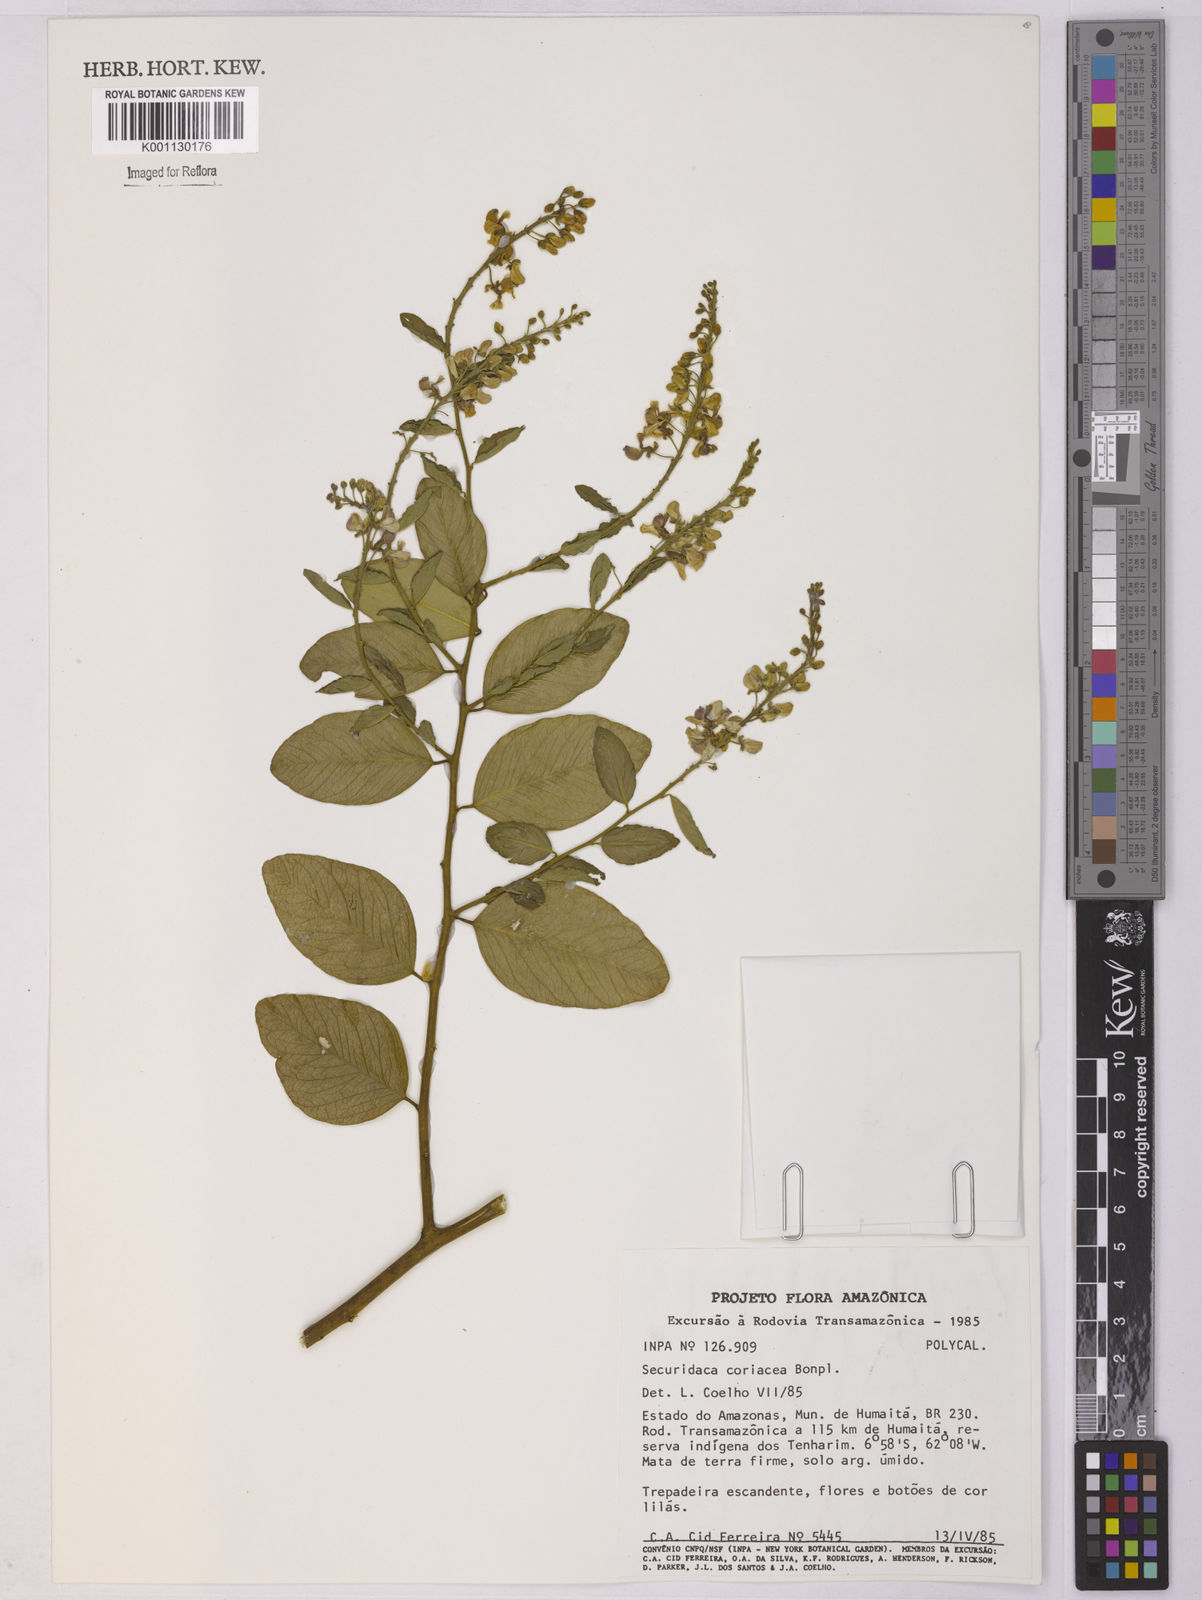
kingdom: Plantae
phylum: Tracheophyta
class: Magnoliopsida
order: Fabales
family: Polygalaceae
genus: Securidaca
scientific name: Securidaca coriacea
